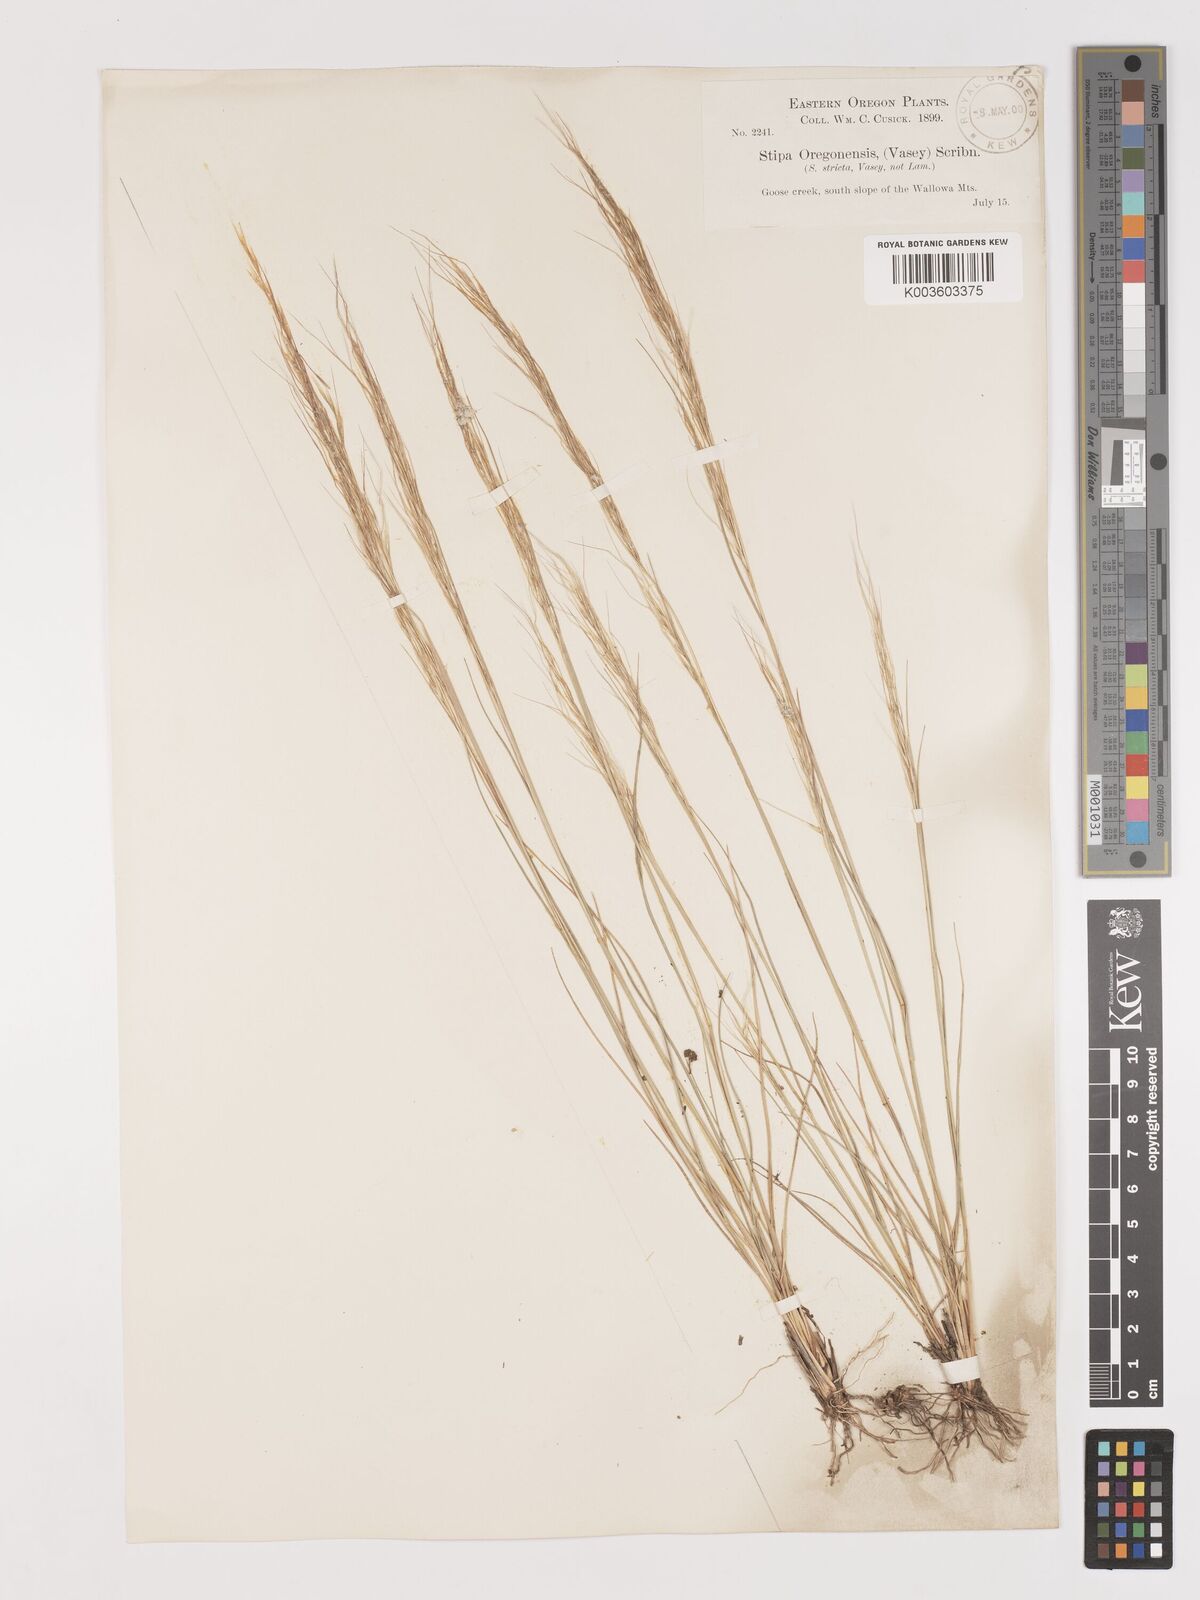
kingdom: Plantae
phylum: Tracheophyta
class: Liliopsida
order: Poales
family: Poaceae
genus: Eriocoma
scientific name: Eriocoma thurberiana
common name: Thurber's needlegrass
